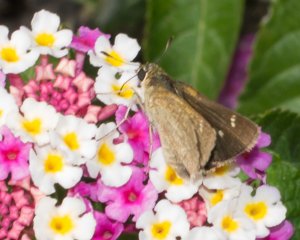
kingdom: Animalia
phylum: Arthropoda
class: Insecta
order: Lepidoptera
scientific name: Lepidoptera
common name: Butterflies
